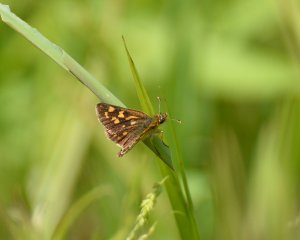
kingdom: Animalia
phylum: Arthropoda
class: Insecta
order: Lepidoptera
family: Hesperiidae
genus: Carterocephalus
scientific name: Carterocephalus palaemon
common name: Chequered Skipper
